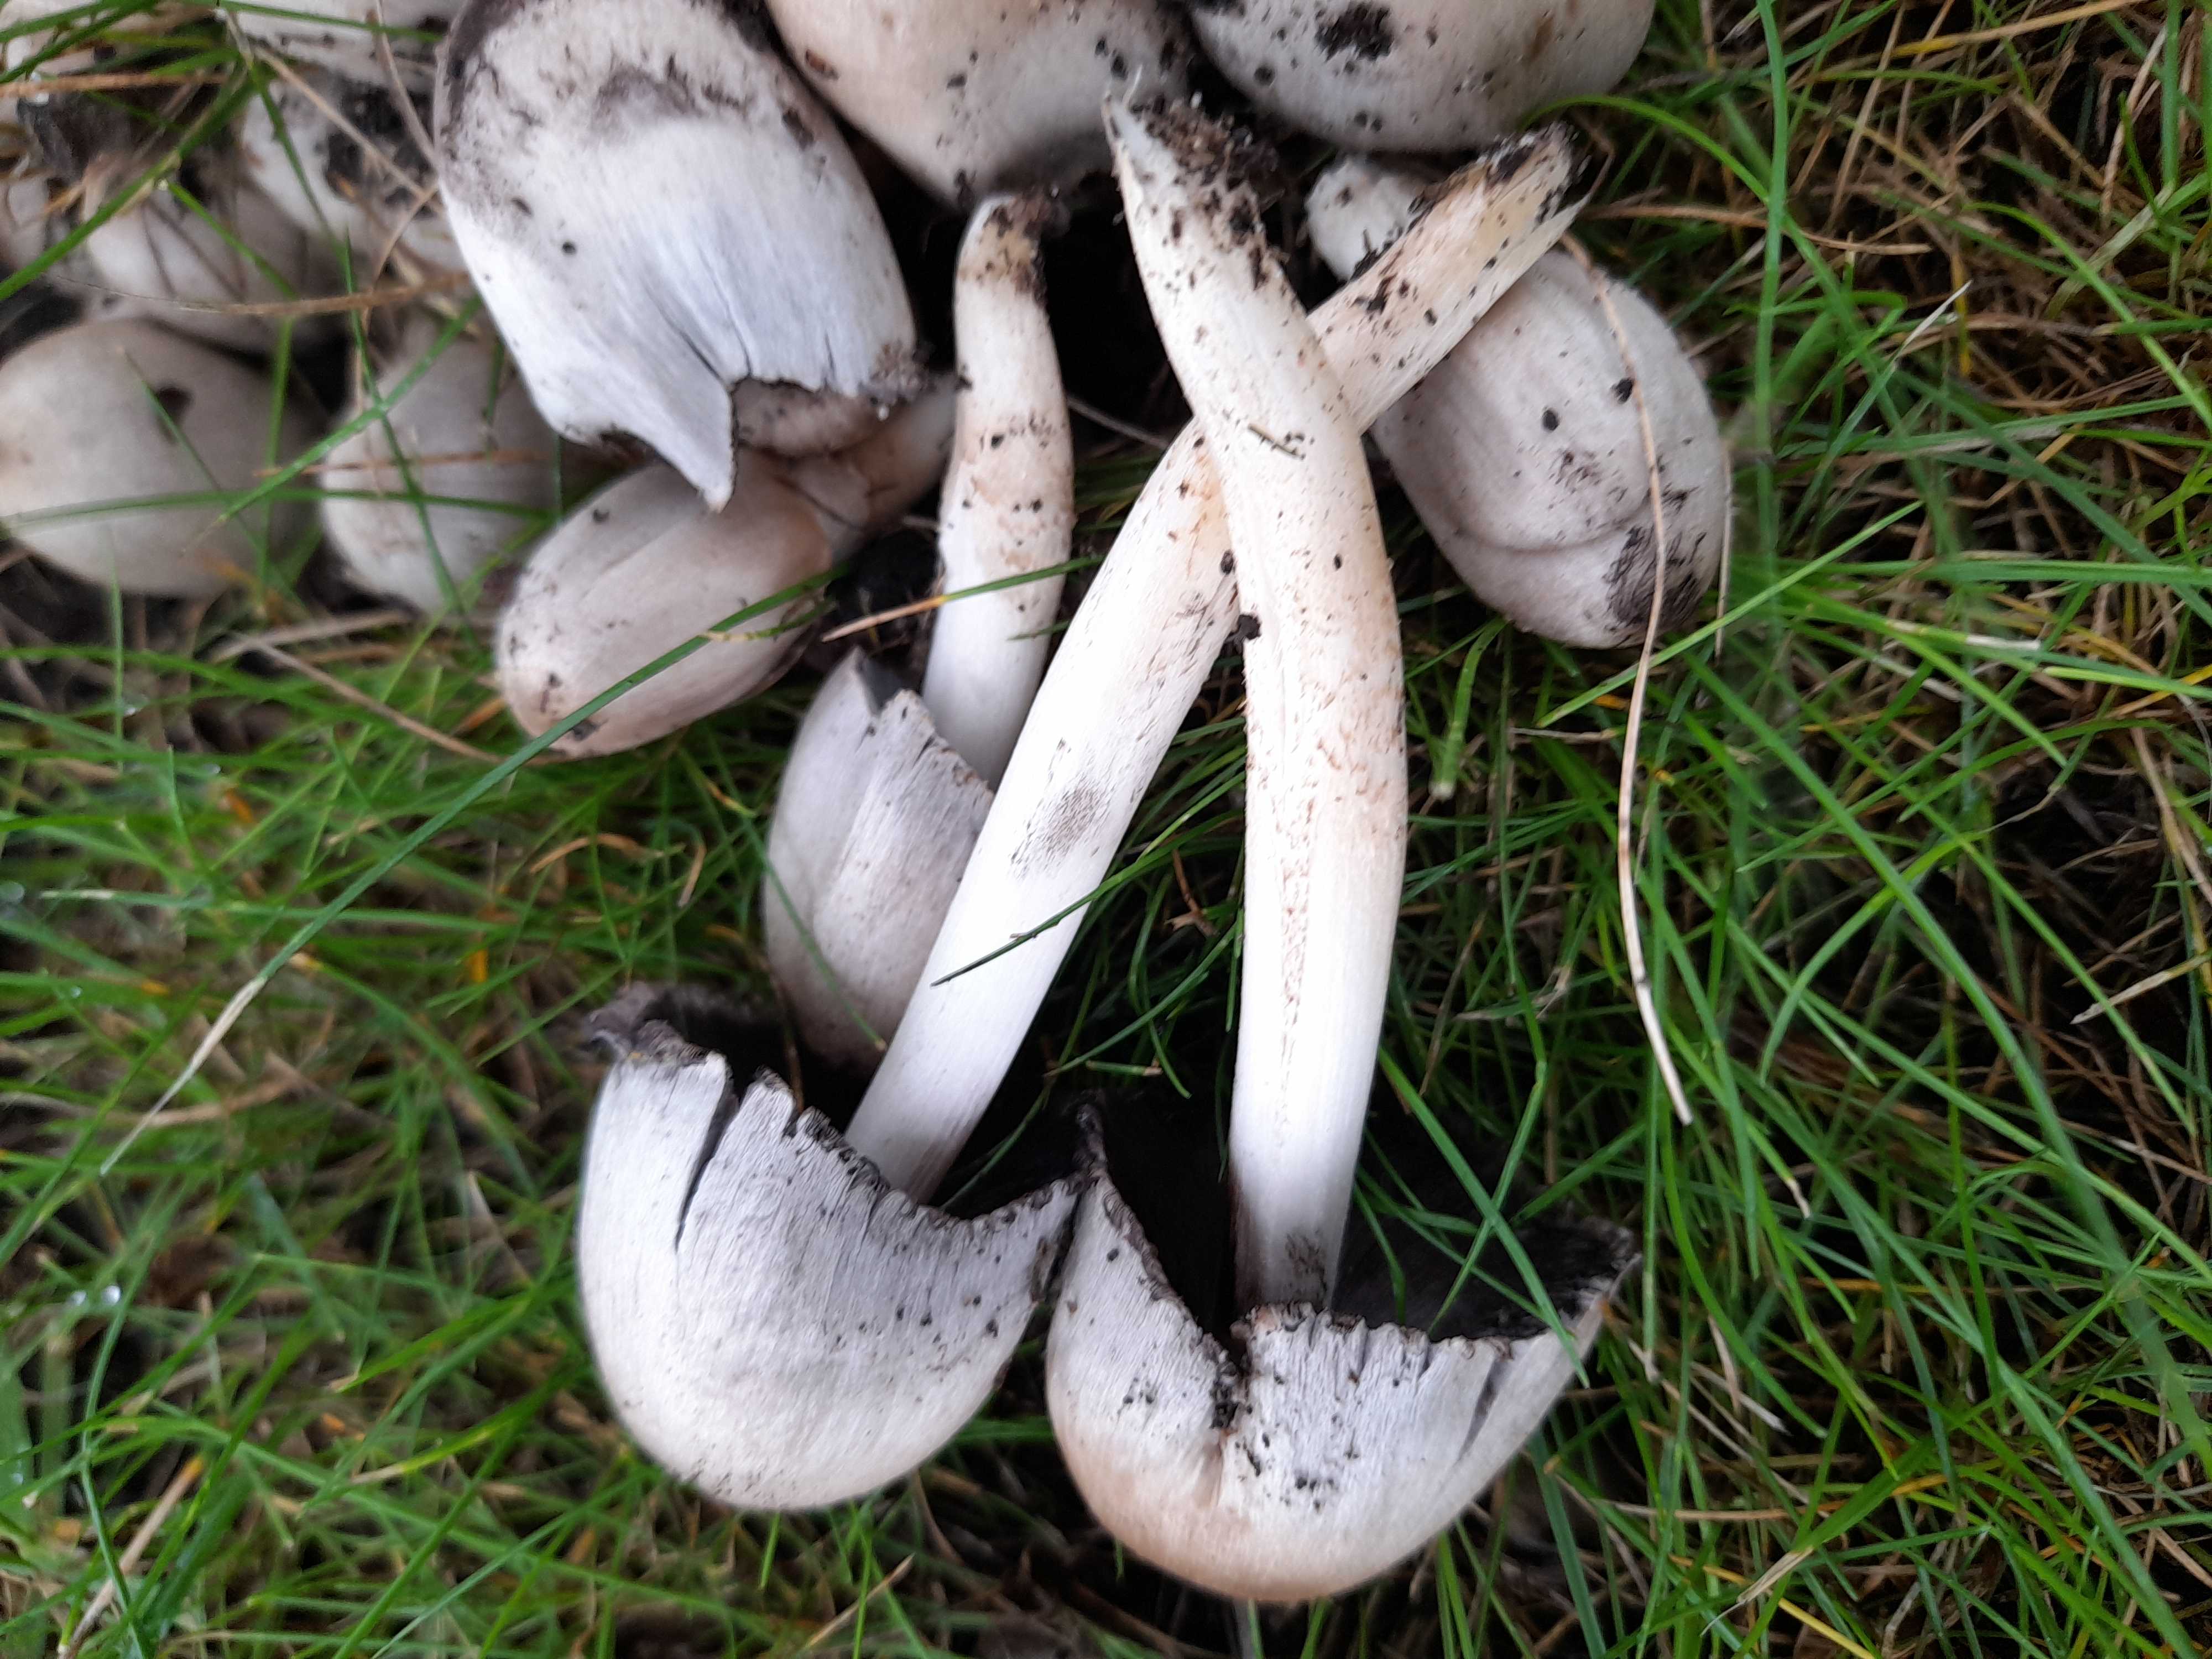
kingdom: Fungi
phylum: Basidiomycota
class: Agaricomycetes
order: Agaricales
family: Psathyrellaceae
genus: Coprinopsis
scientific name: Coprinopsis atramentaria
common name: almindelig blækhat
